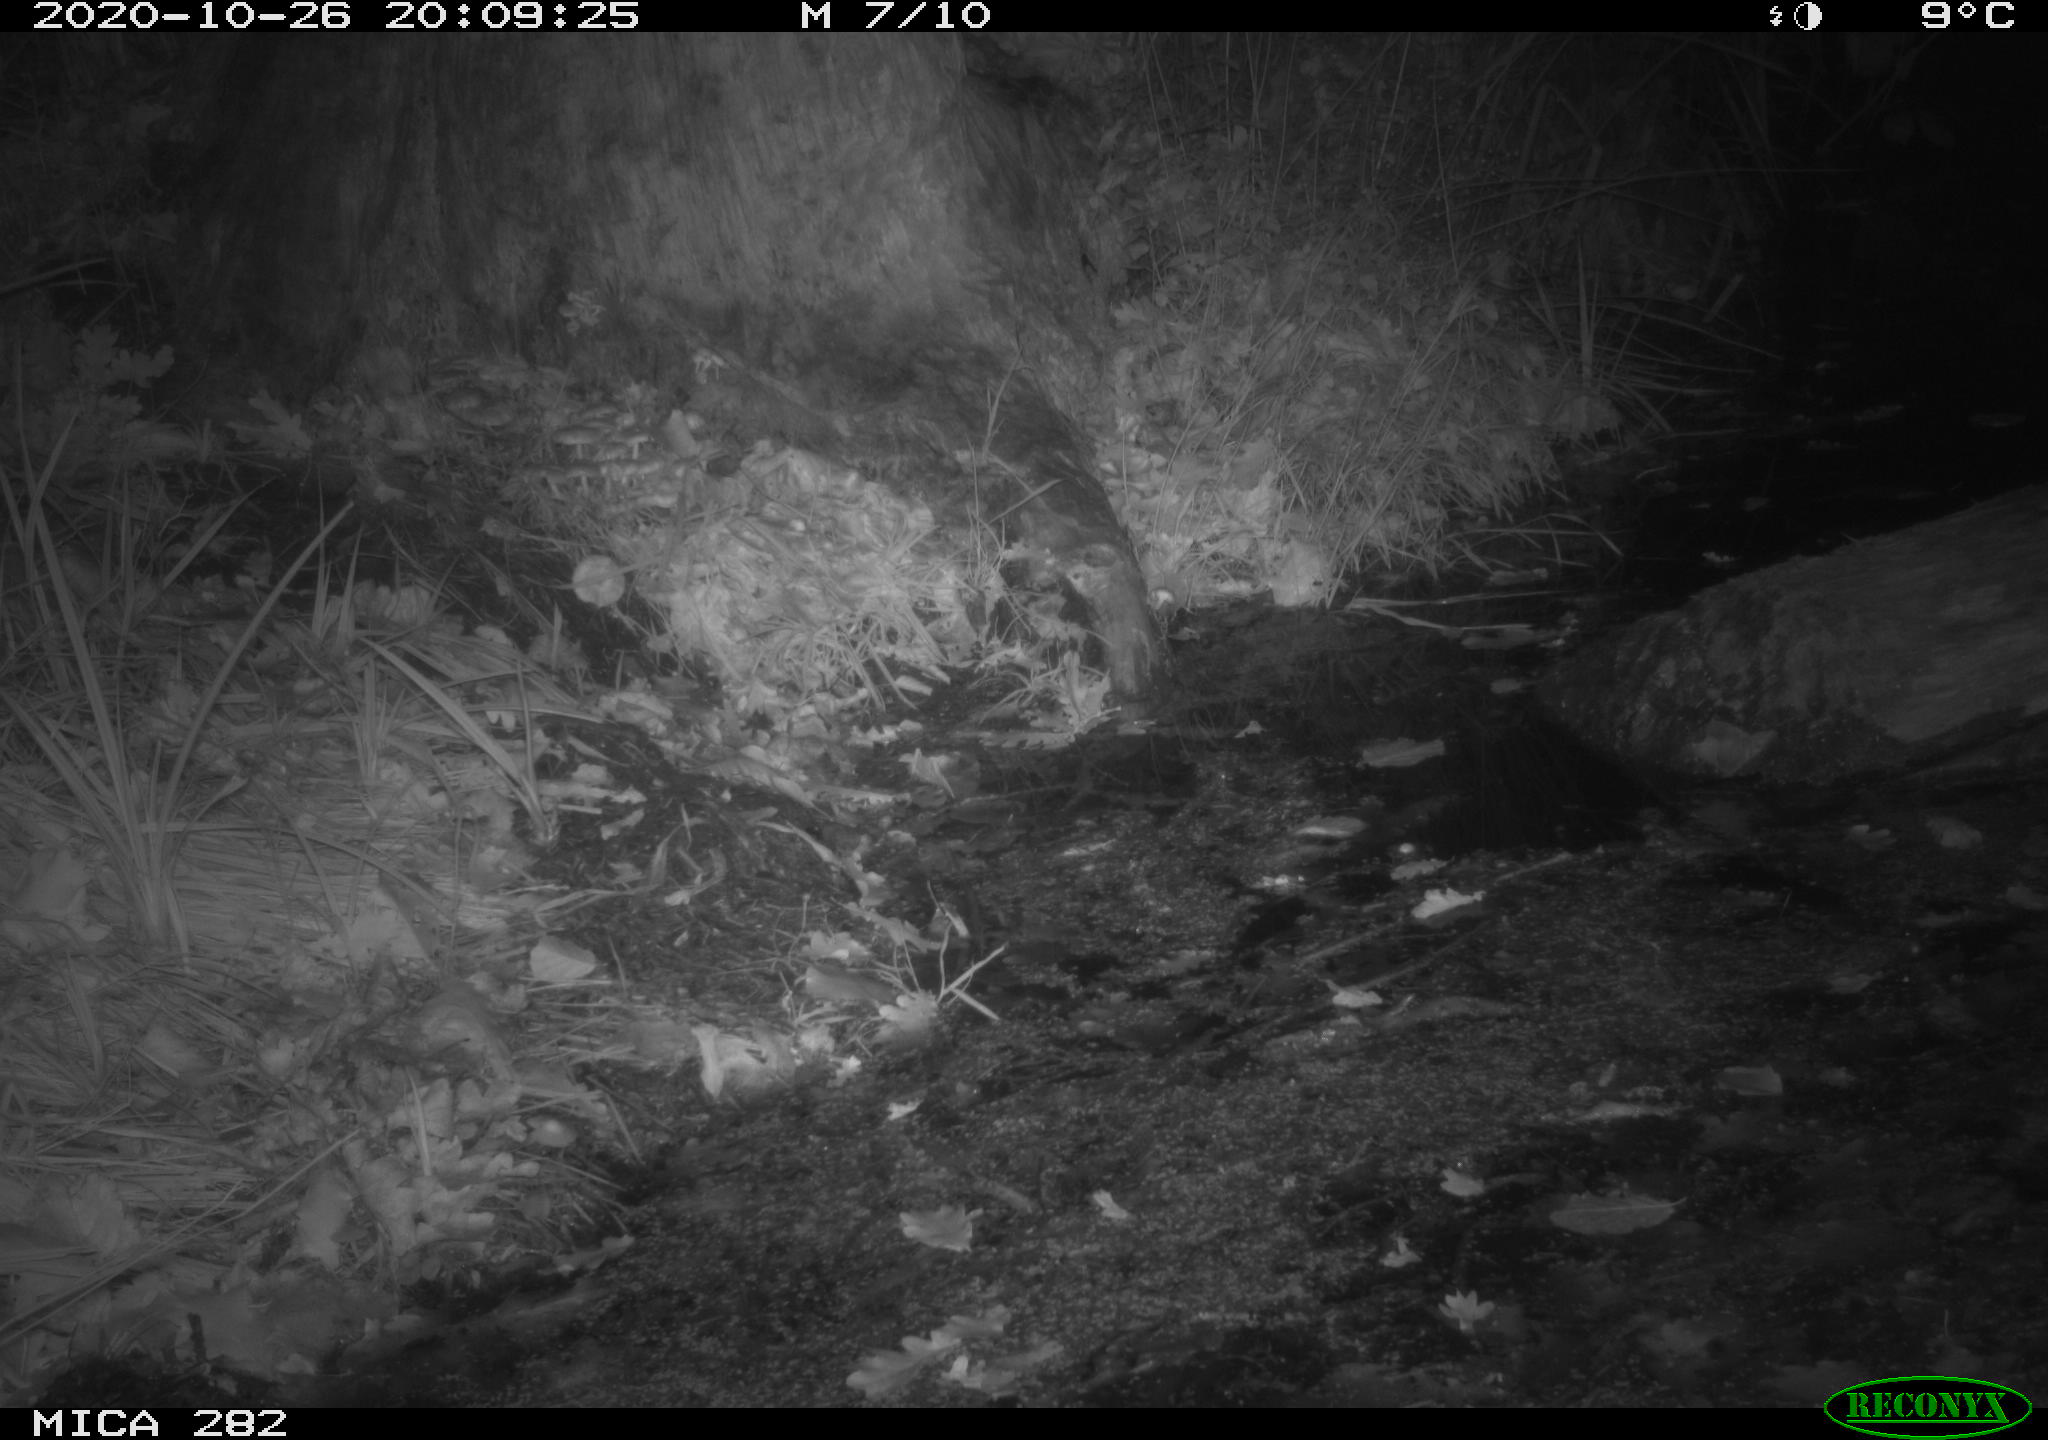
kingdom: Animalia
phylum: Chordata
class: Mammalia
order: Soricomorpha
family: Soricidae
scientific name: Soricidae
